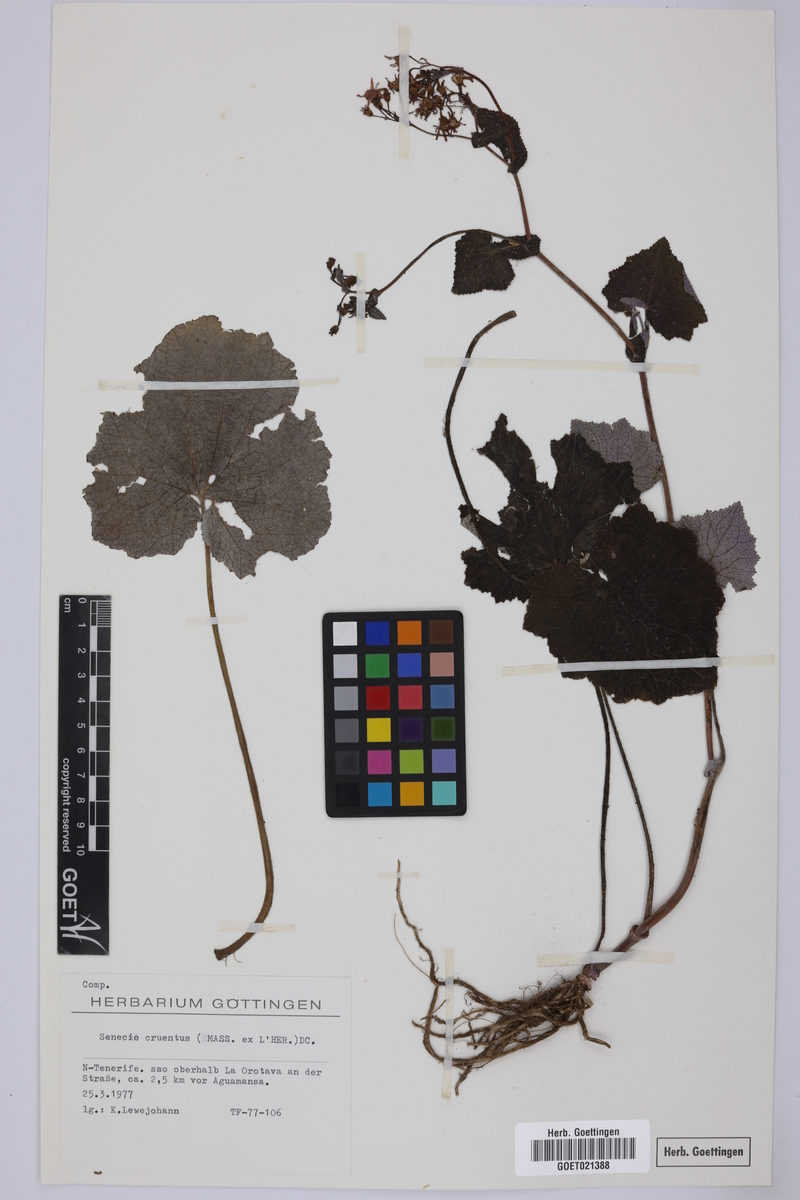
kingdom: Plantae
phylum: Tracheophyta
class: Magnoliopsida
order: Asterales
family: Asteraceae
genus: Pericallis
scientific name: Pericallis cruenta
